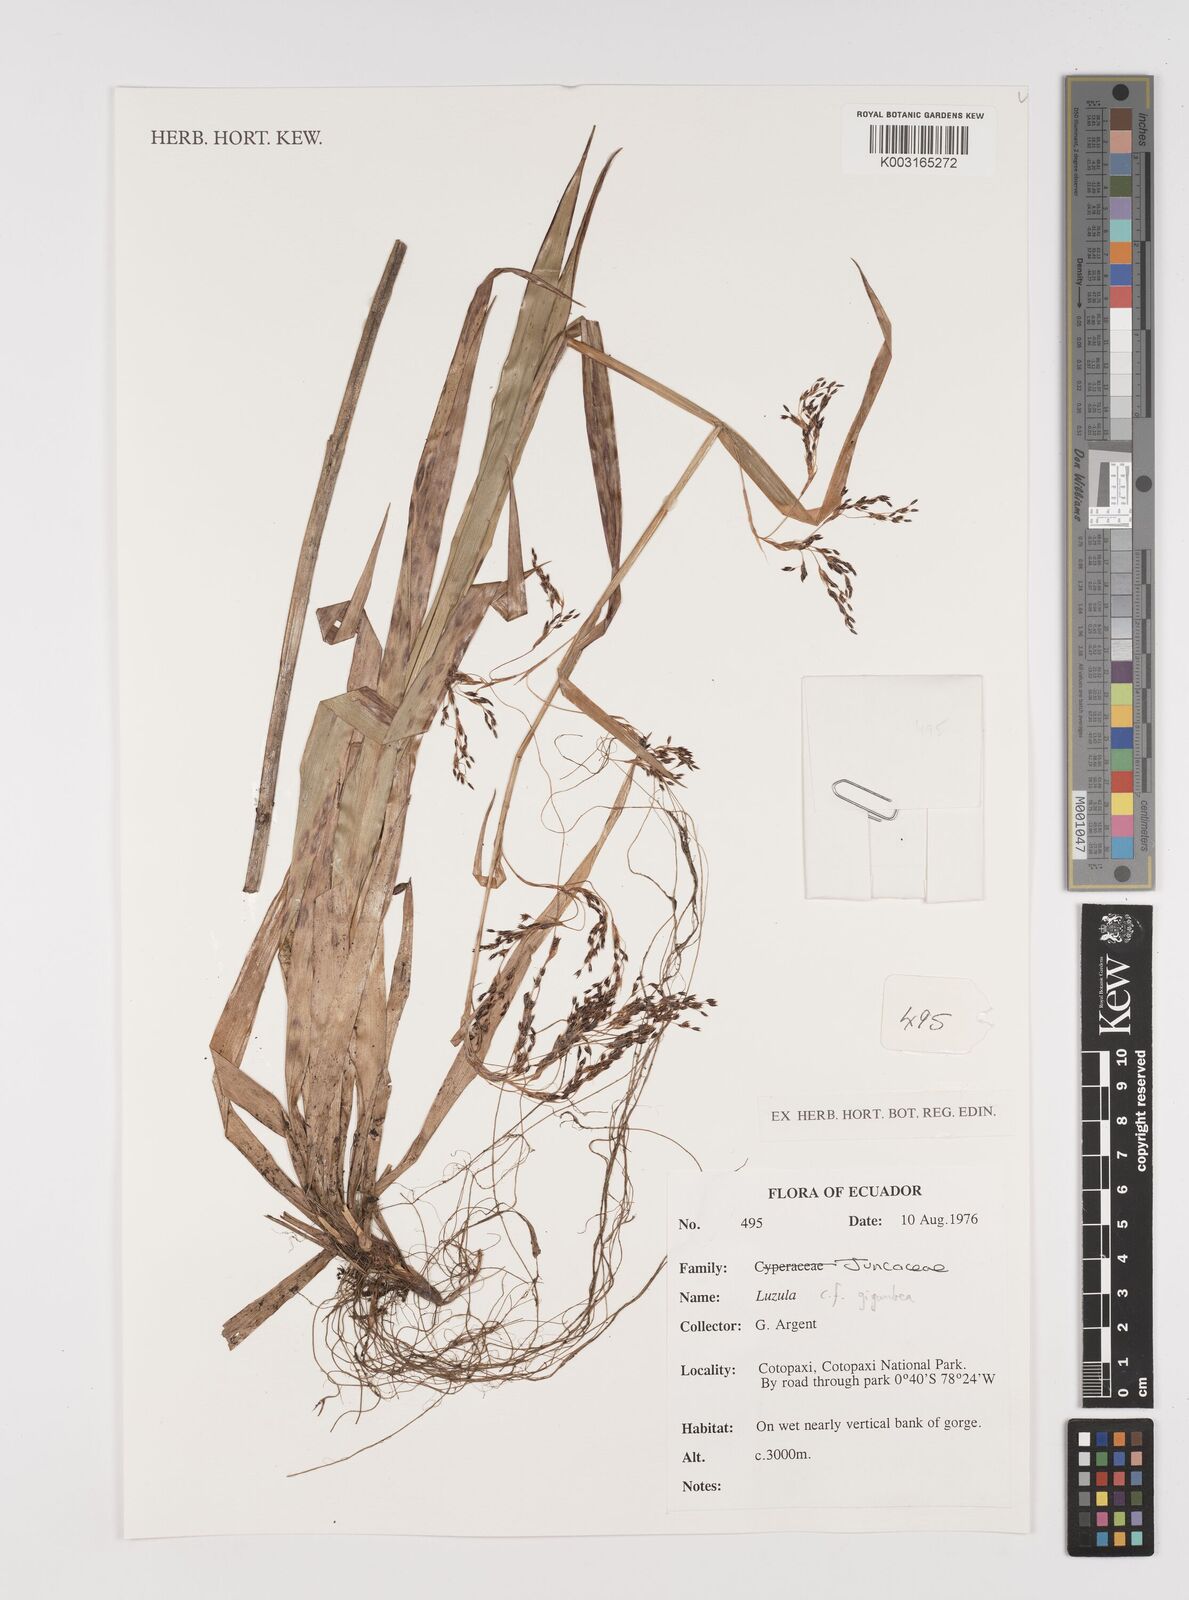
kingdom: Plantae
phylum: Tracheophyta
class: Liliopsida
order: Poales
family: Juncaceae
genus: Luzula
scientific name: Luzula gigantea
